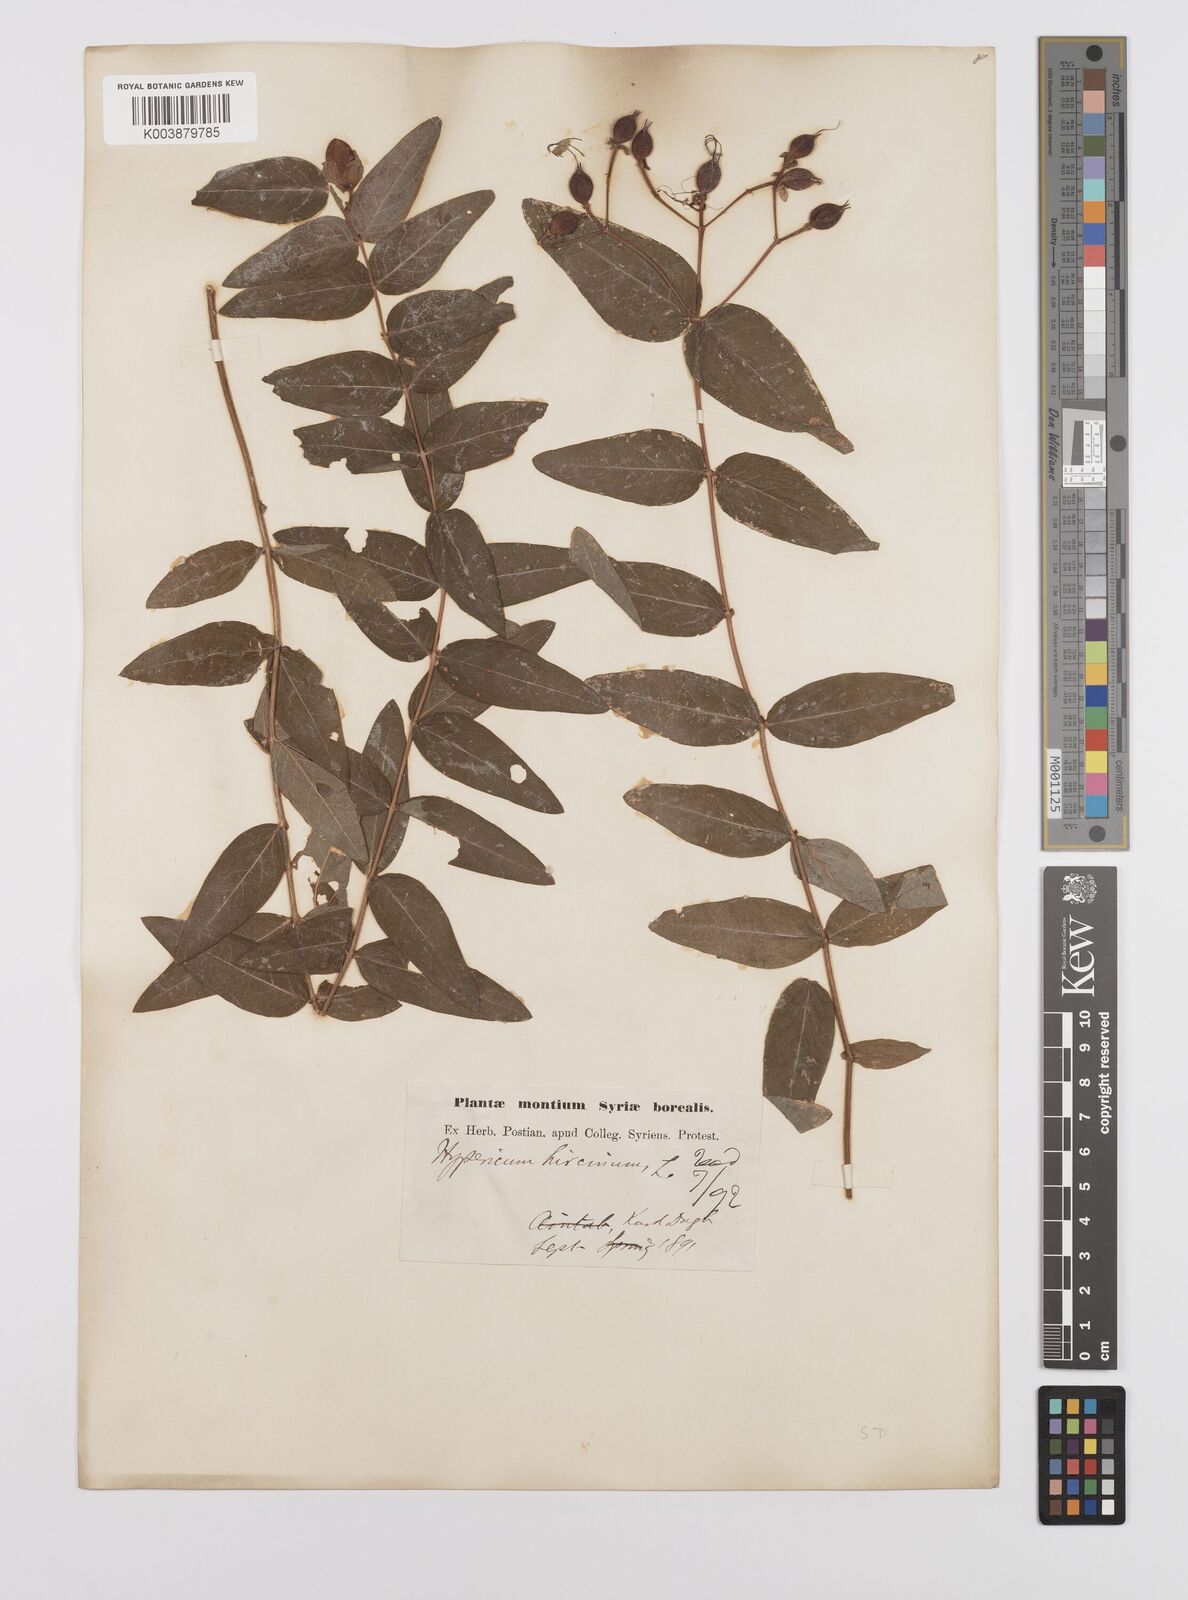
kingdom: Plantae
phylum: Tracheophyta
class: Magnoliopsida
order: Malpighiales
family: Hypericaceae
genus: Hypericum
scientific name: Hypericum hircinum
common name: Stinking tutsan
